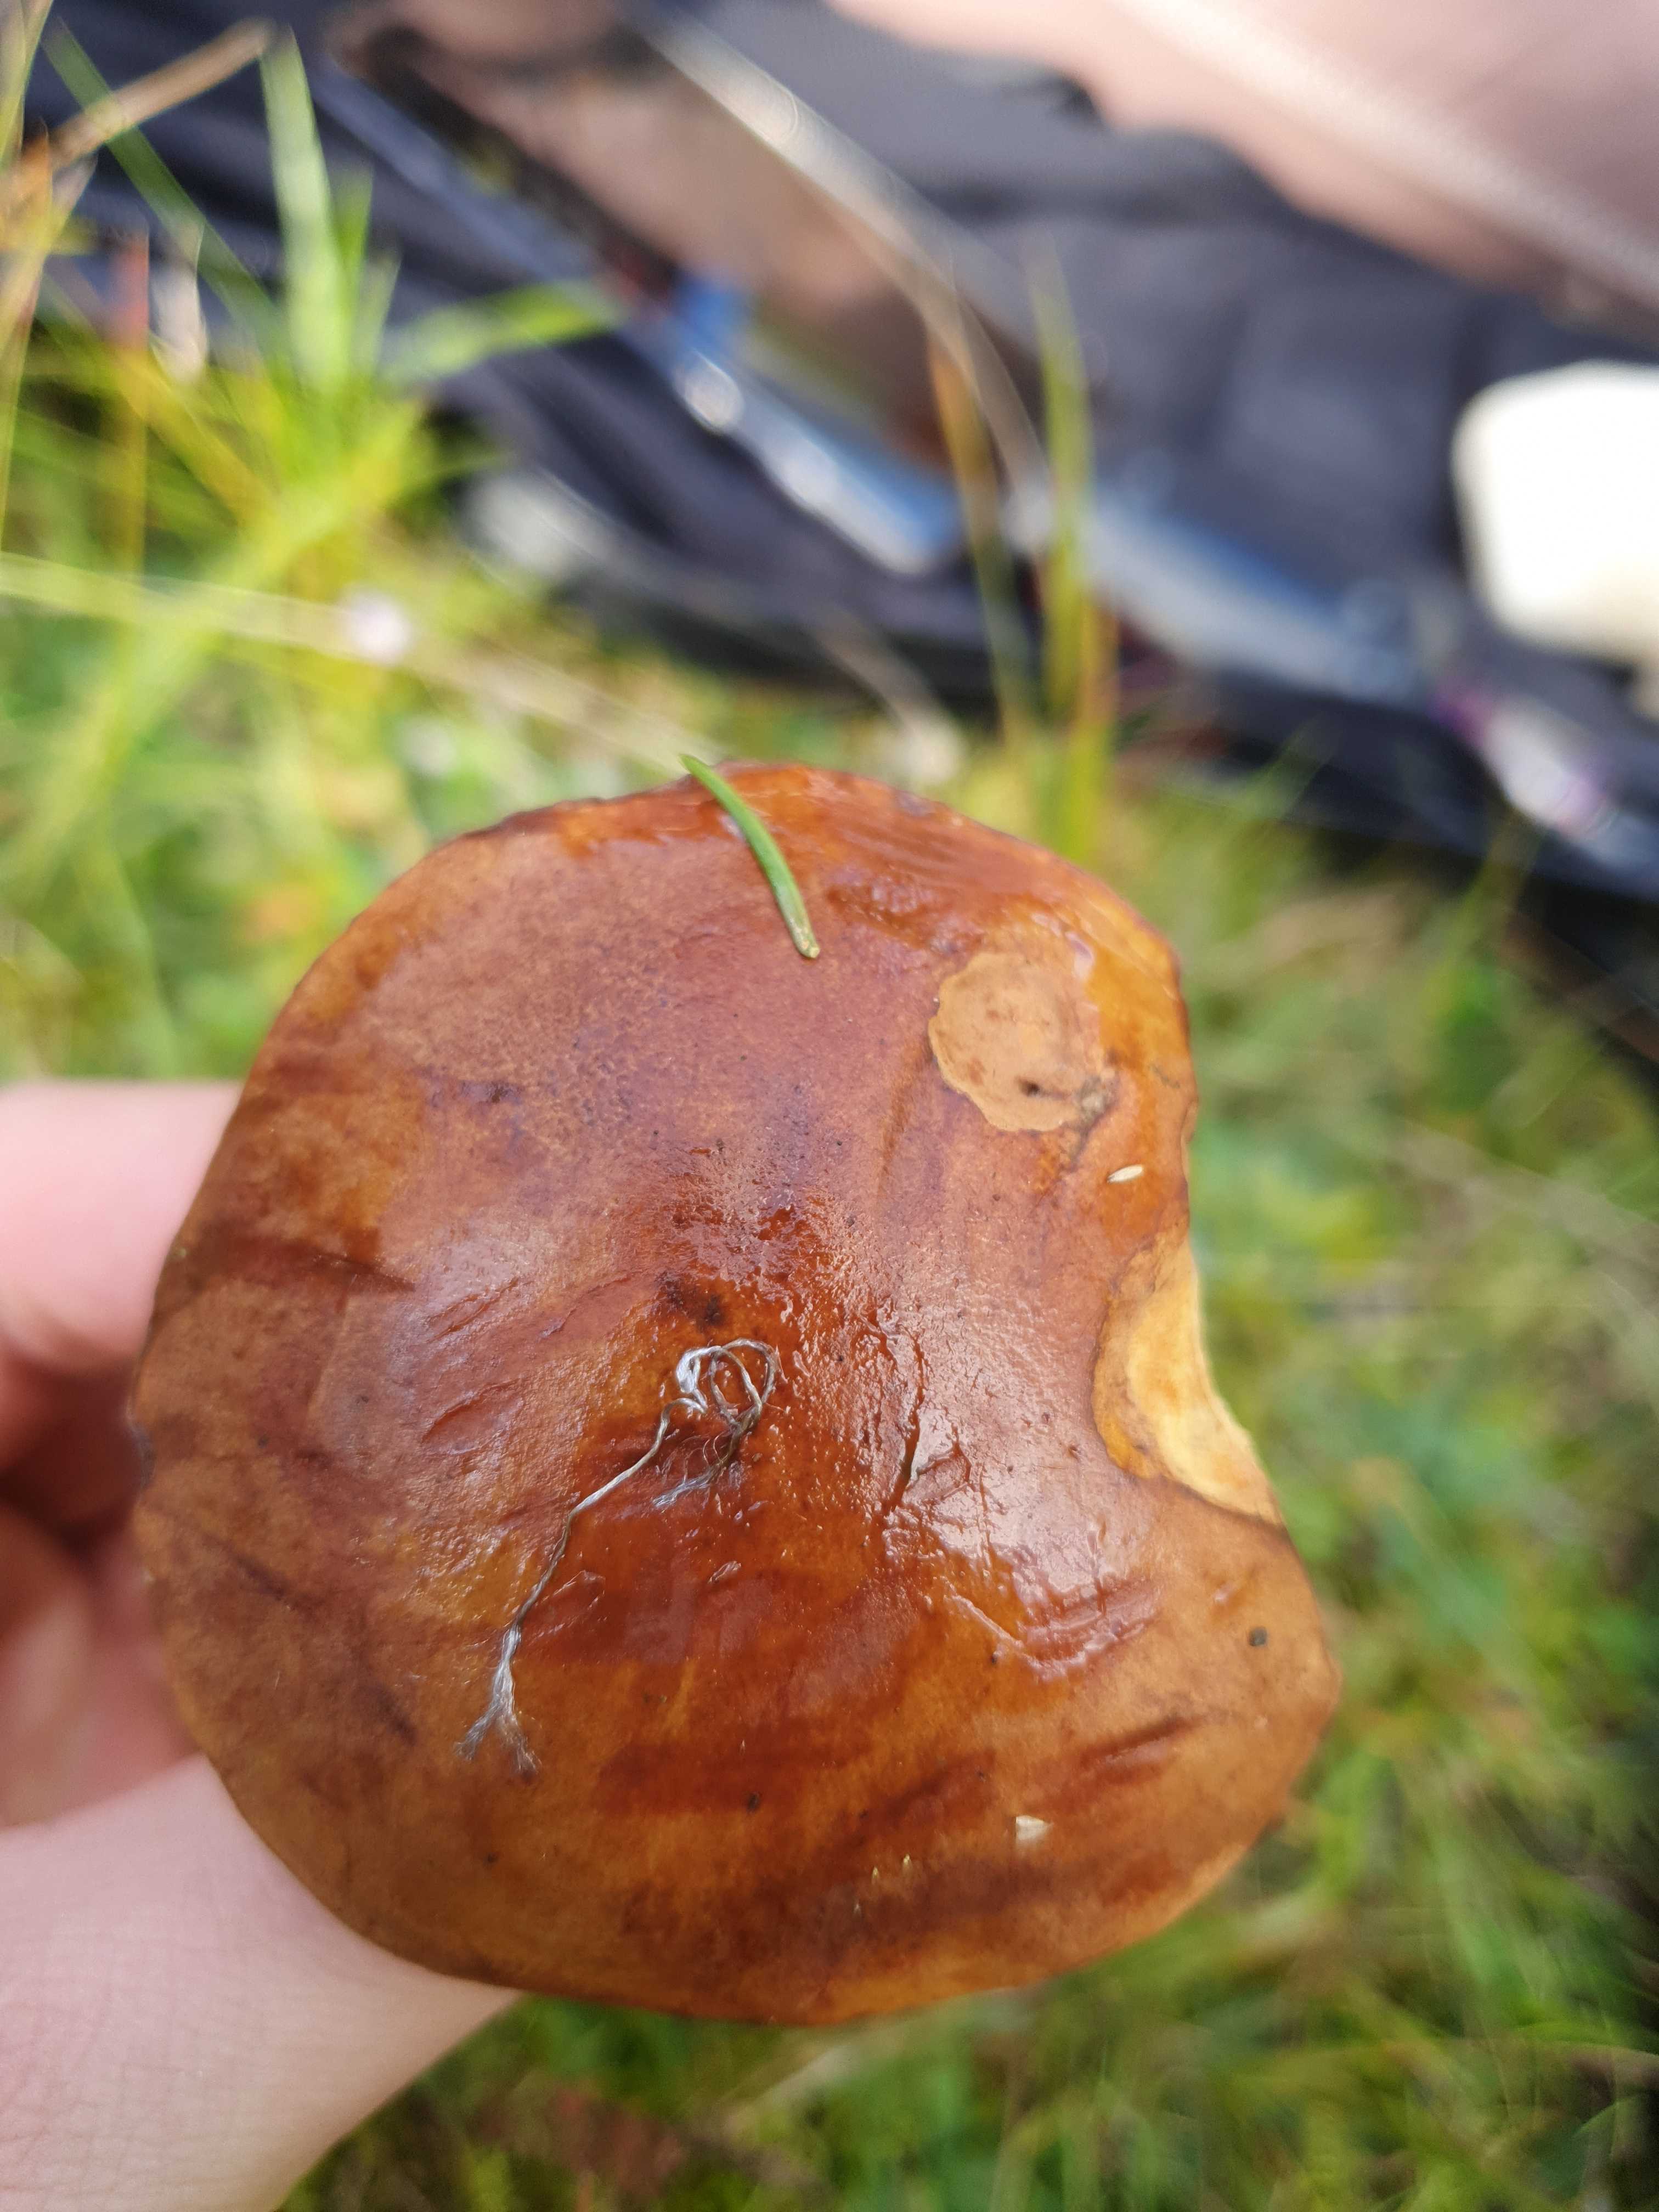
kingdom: Fungi
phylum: Basidiomycota
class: Agaricomycetes
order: Boletales
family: Boletaceae
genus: Imleria
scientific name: Imleria badia
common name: brunstokket rørhat
